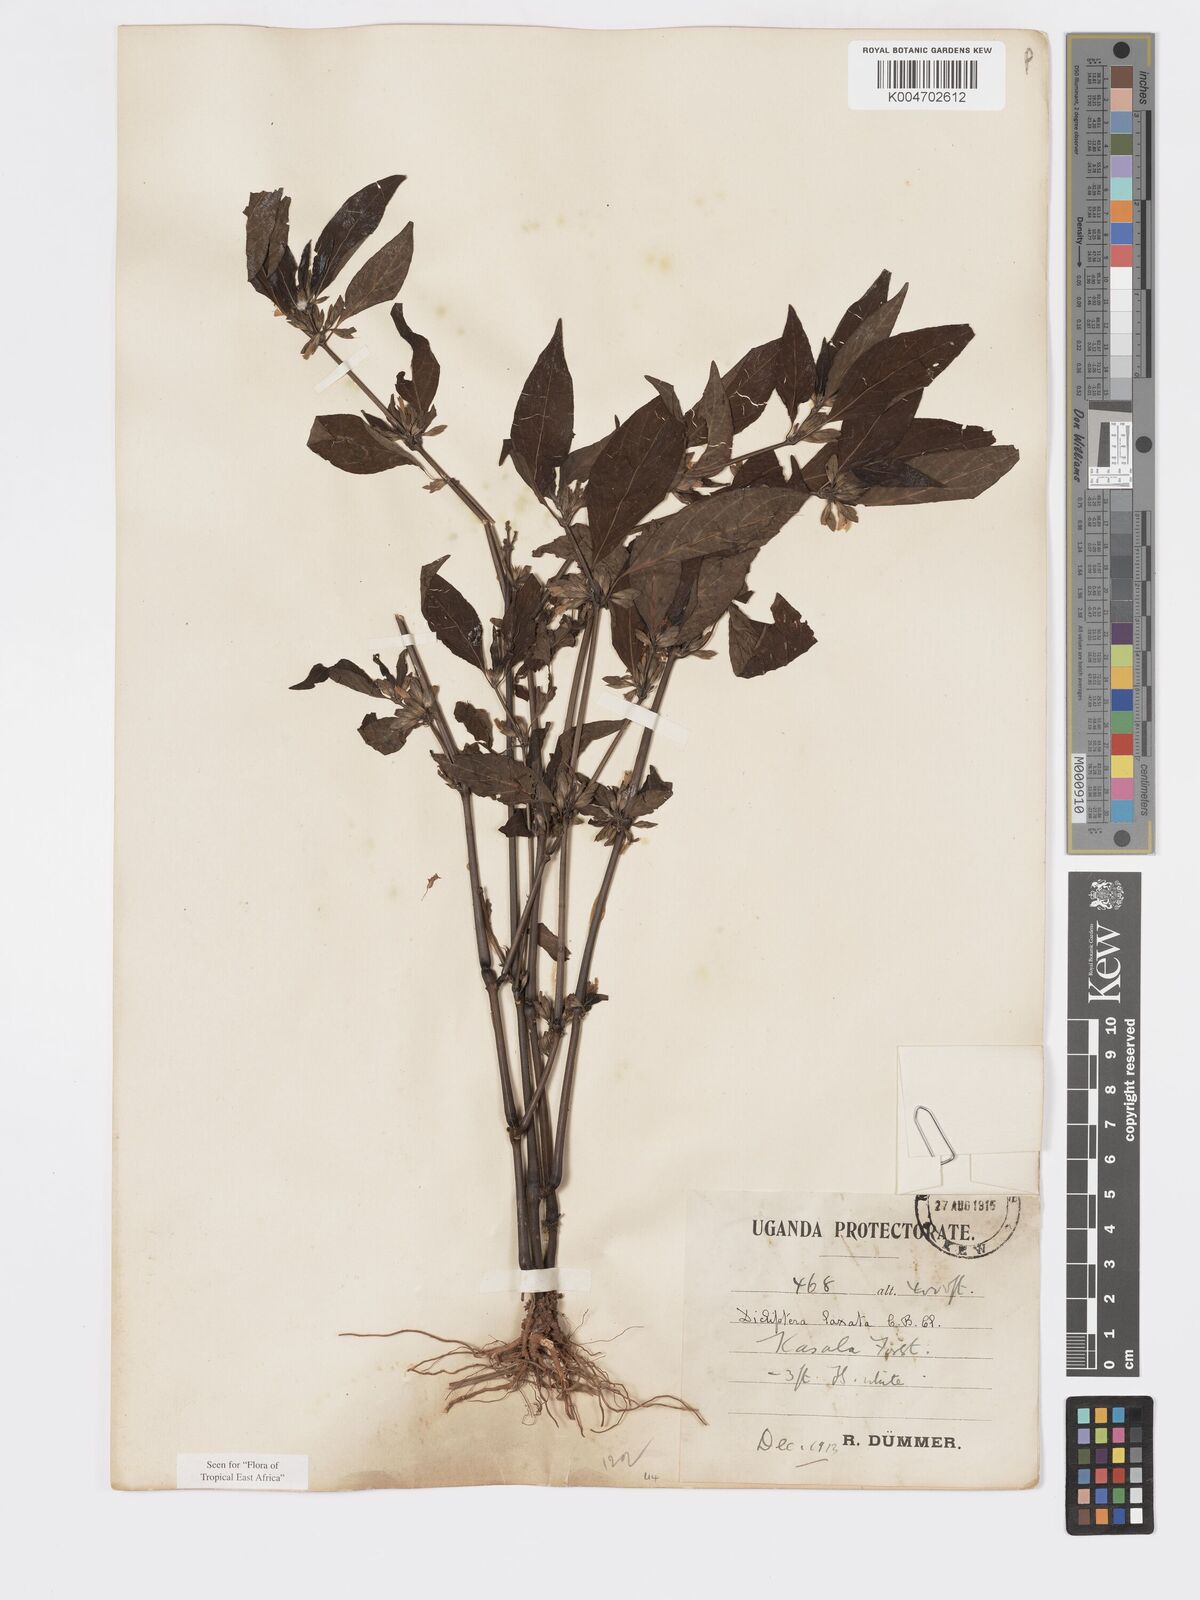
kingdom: Plantae
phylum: Tracheophyta
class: Magnoliopsida
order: Lamiales
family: Acanthaceae
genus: Dicliptera
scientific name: Dicliptera laxata
